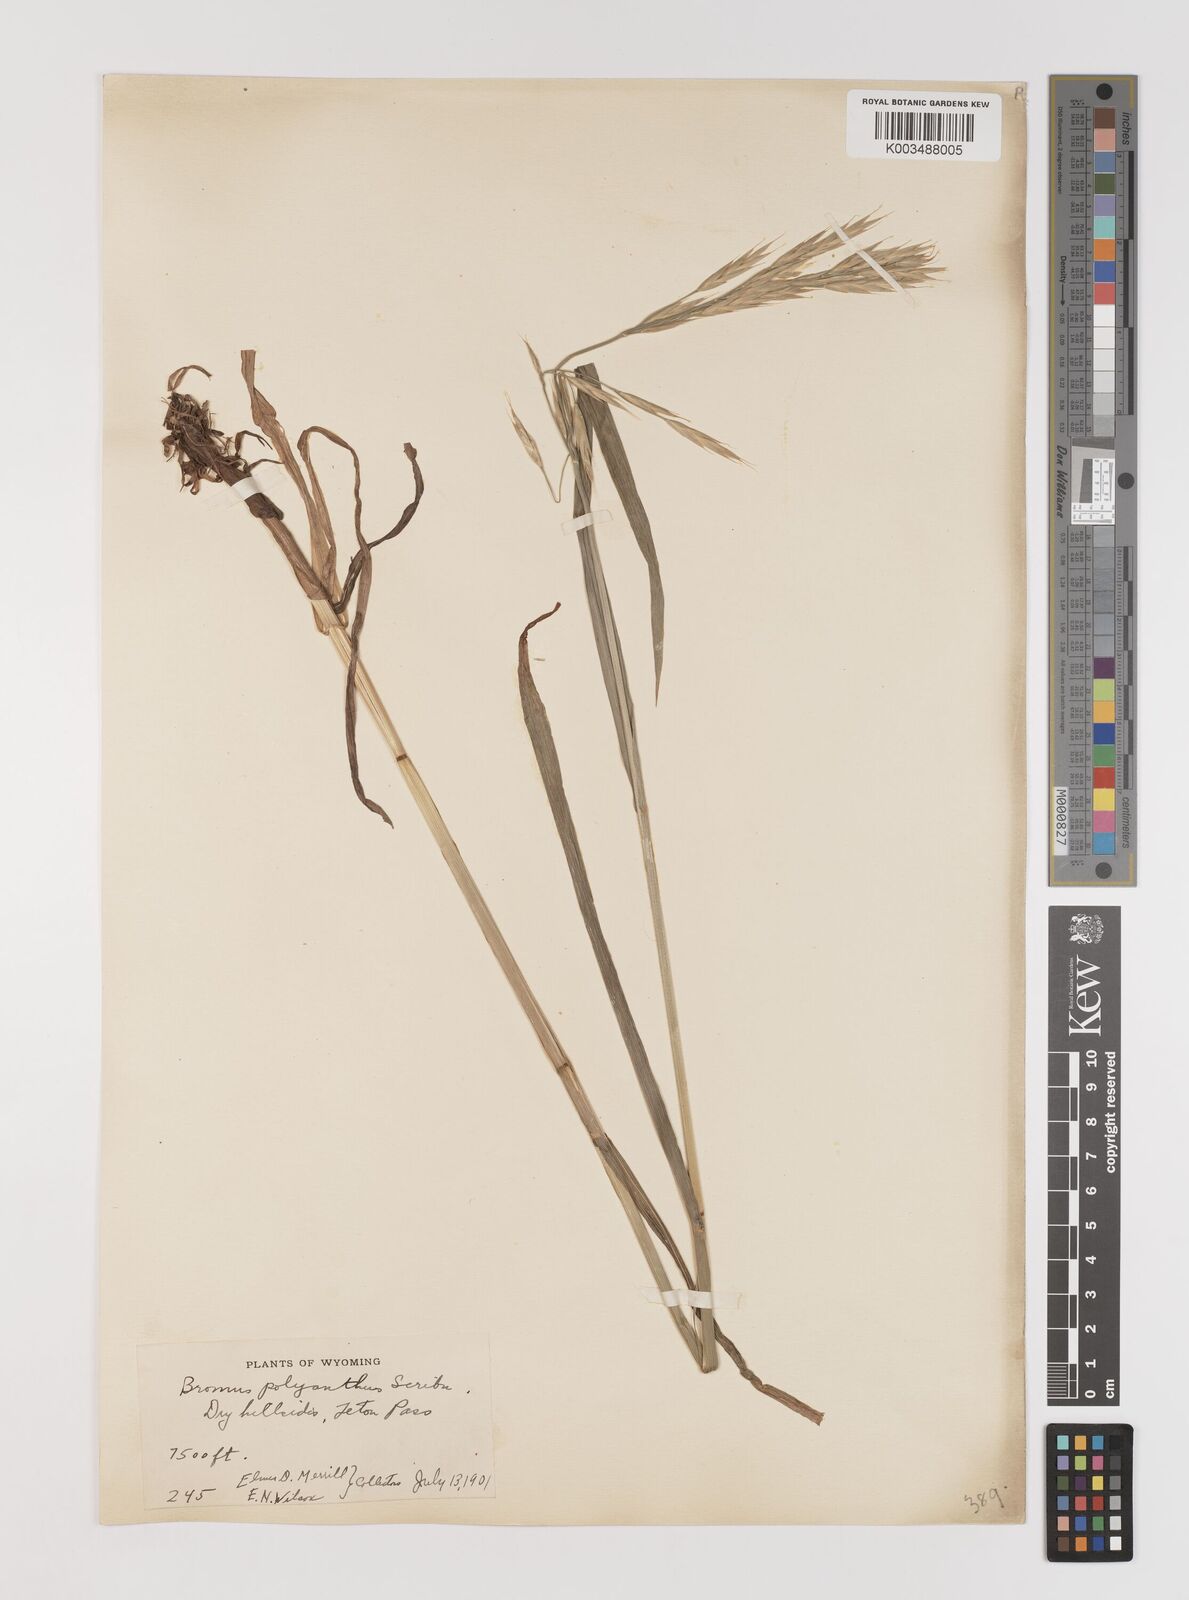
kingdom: Plantae
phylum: Tracheophyta
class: Liliopsida
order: Poales
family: Poaceae
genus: Bromus
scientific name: Bromus polyanthus
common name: Great basin brome
